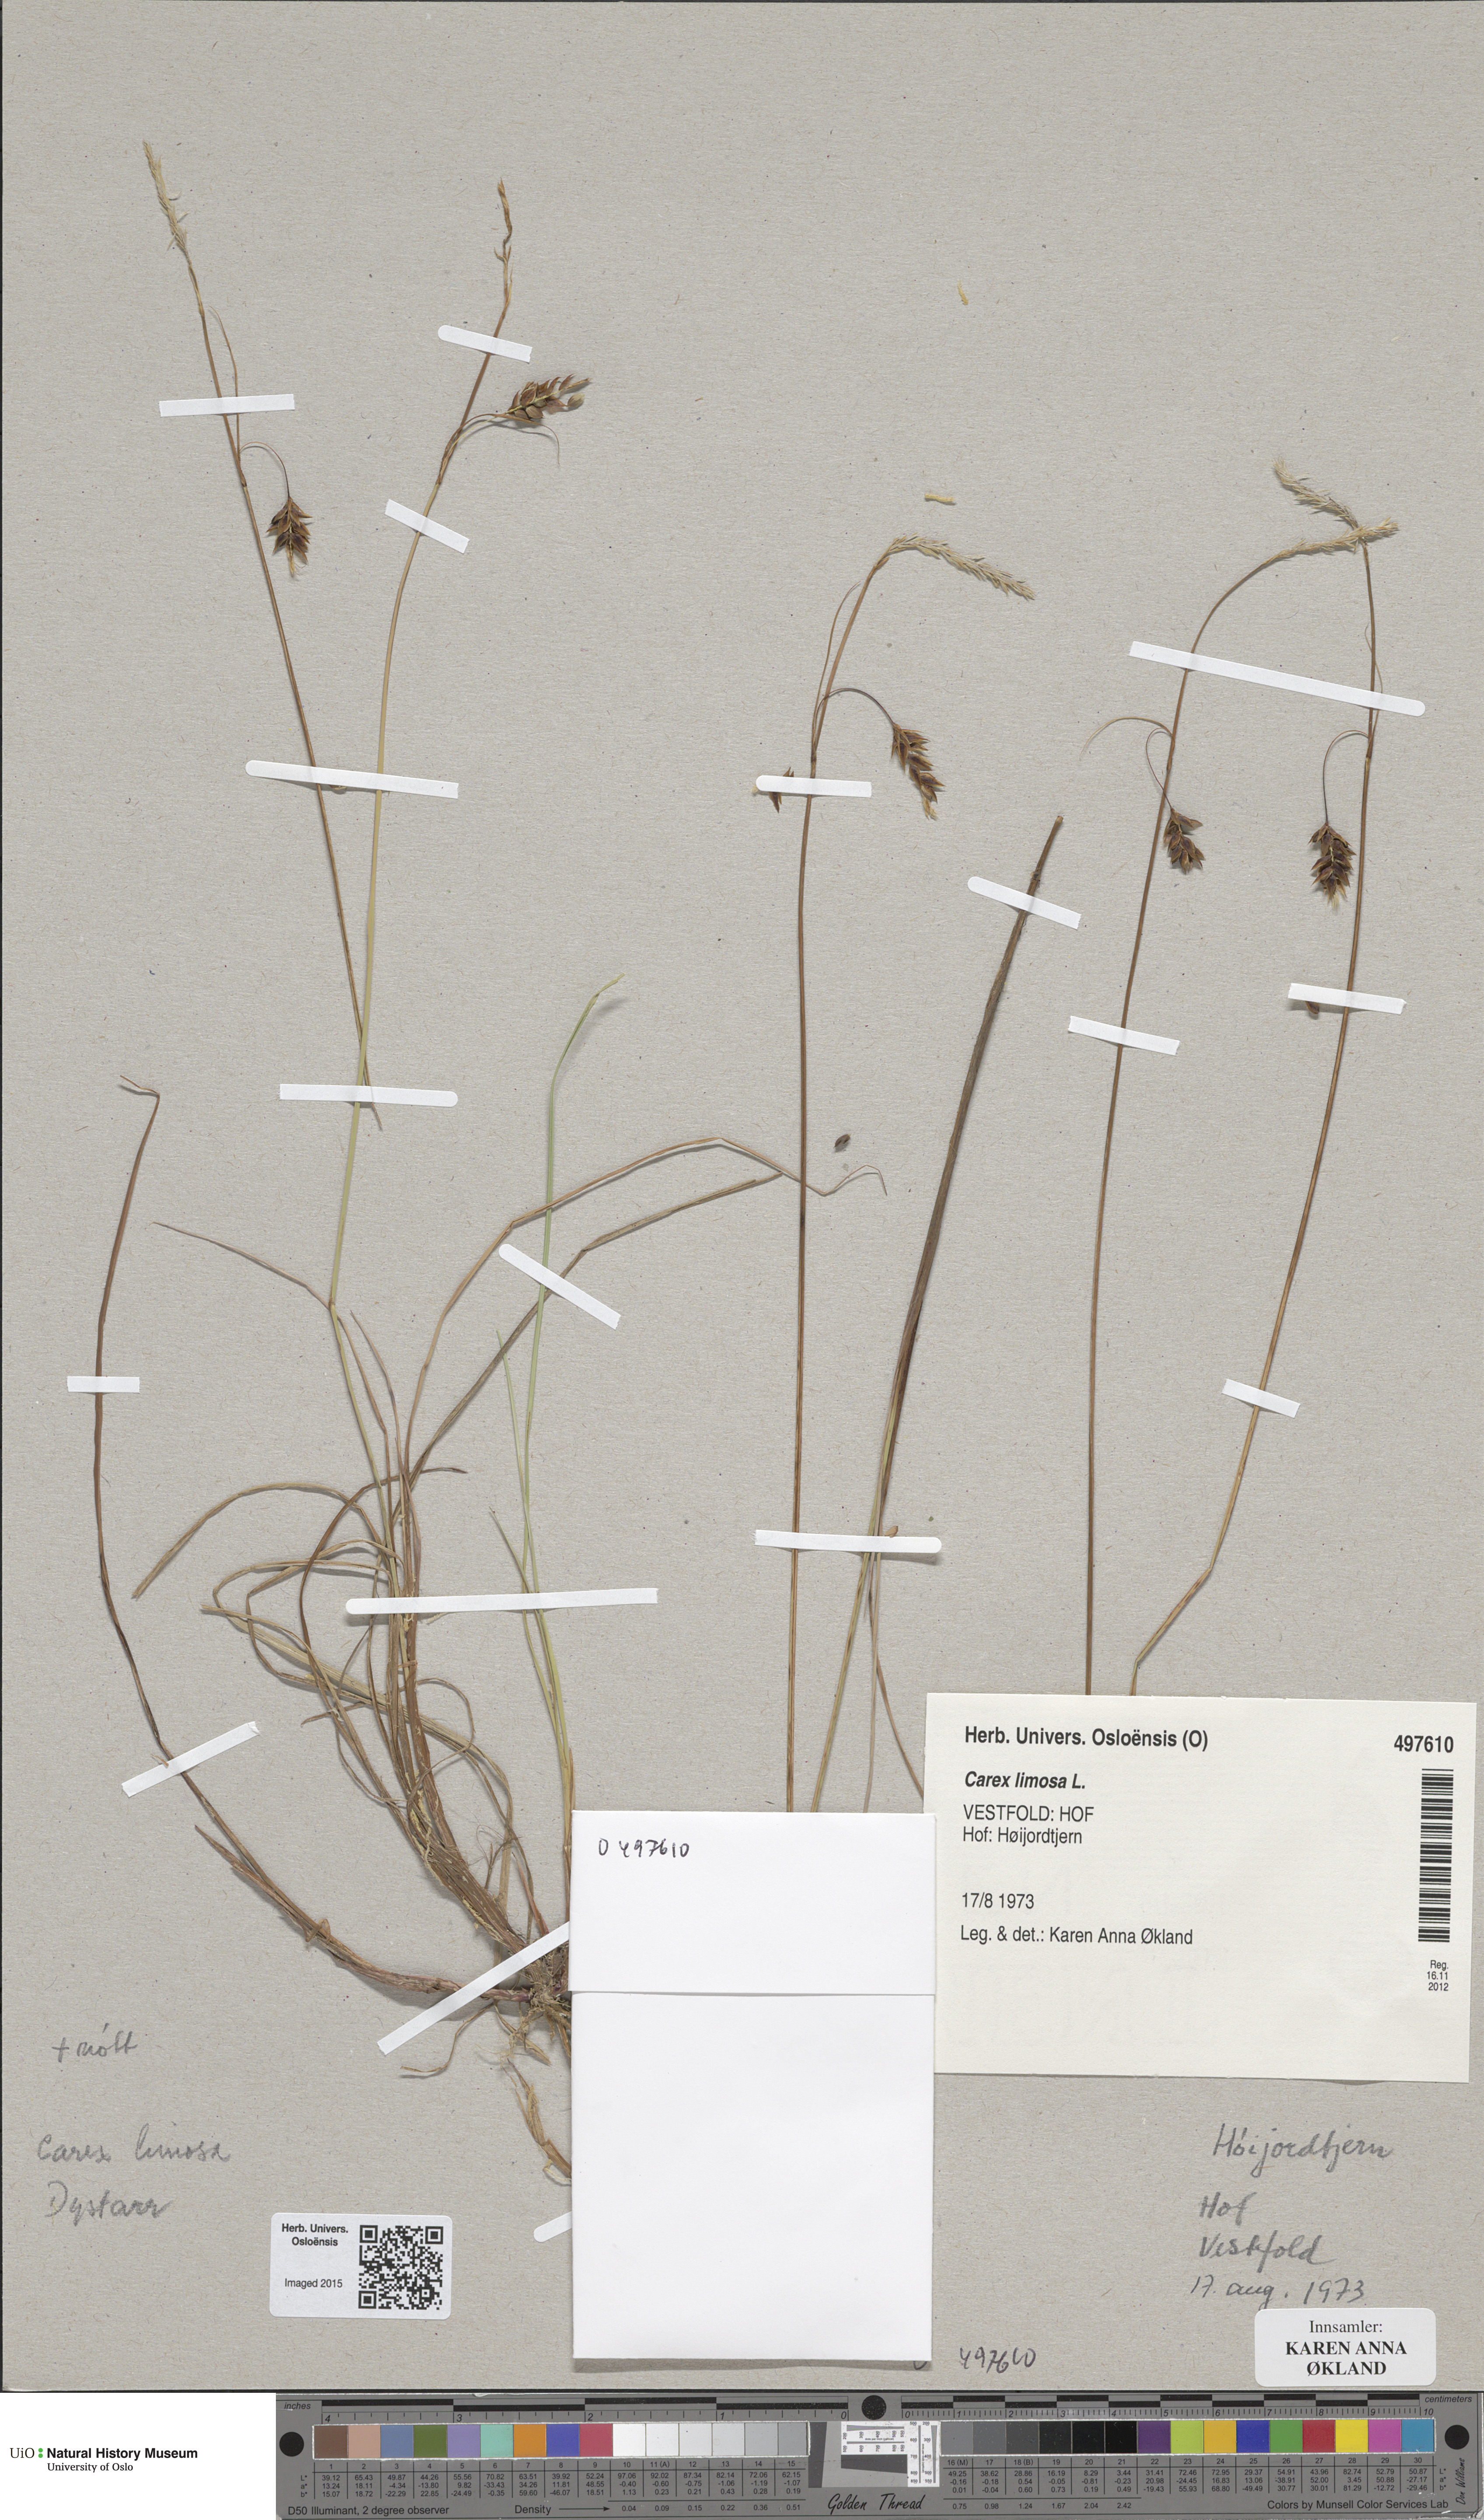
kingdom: Plantae
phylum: Tracheophyta
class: Liliopsida
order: Poales
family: Cyperaceae
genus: Carex
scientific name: Carex limosa
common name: Bog sedge
